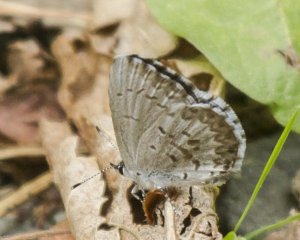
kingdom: Animalia
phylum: Arthropoda
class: Insecta
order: Lepidoptera
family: Lycaenidae
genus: Celastrina
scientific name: Celastrina lucia
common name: Northern Spring Azure
